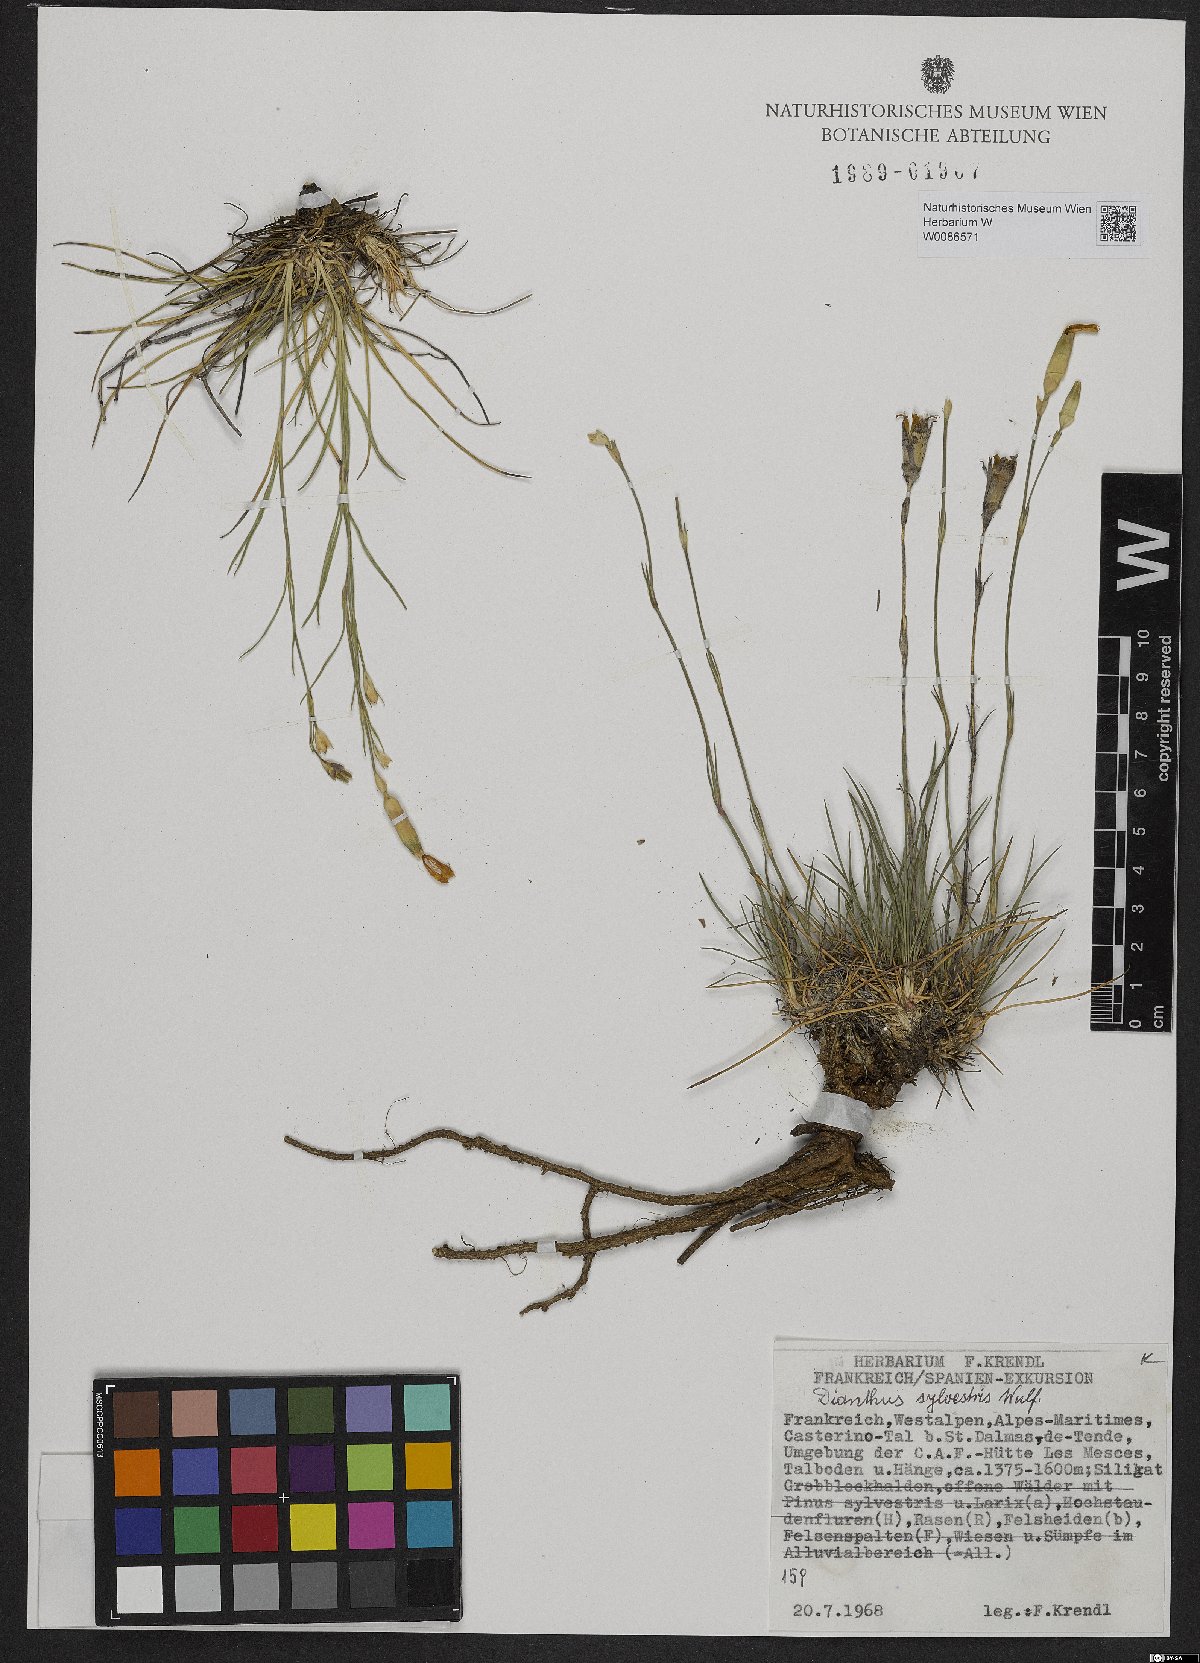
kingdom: Plantae
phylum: Tracheophyta
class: Magnoliopsida
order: Caryophyllales
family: Caryophyllaceae
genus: Dianthus
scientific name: Dianthus sylvestris
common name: Wood pink
